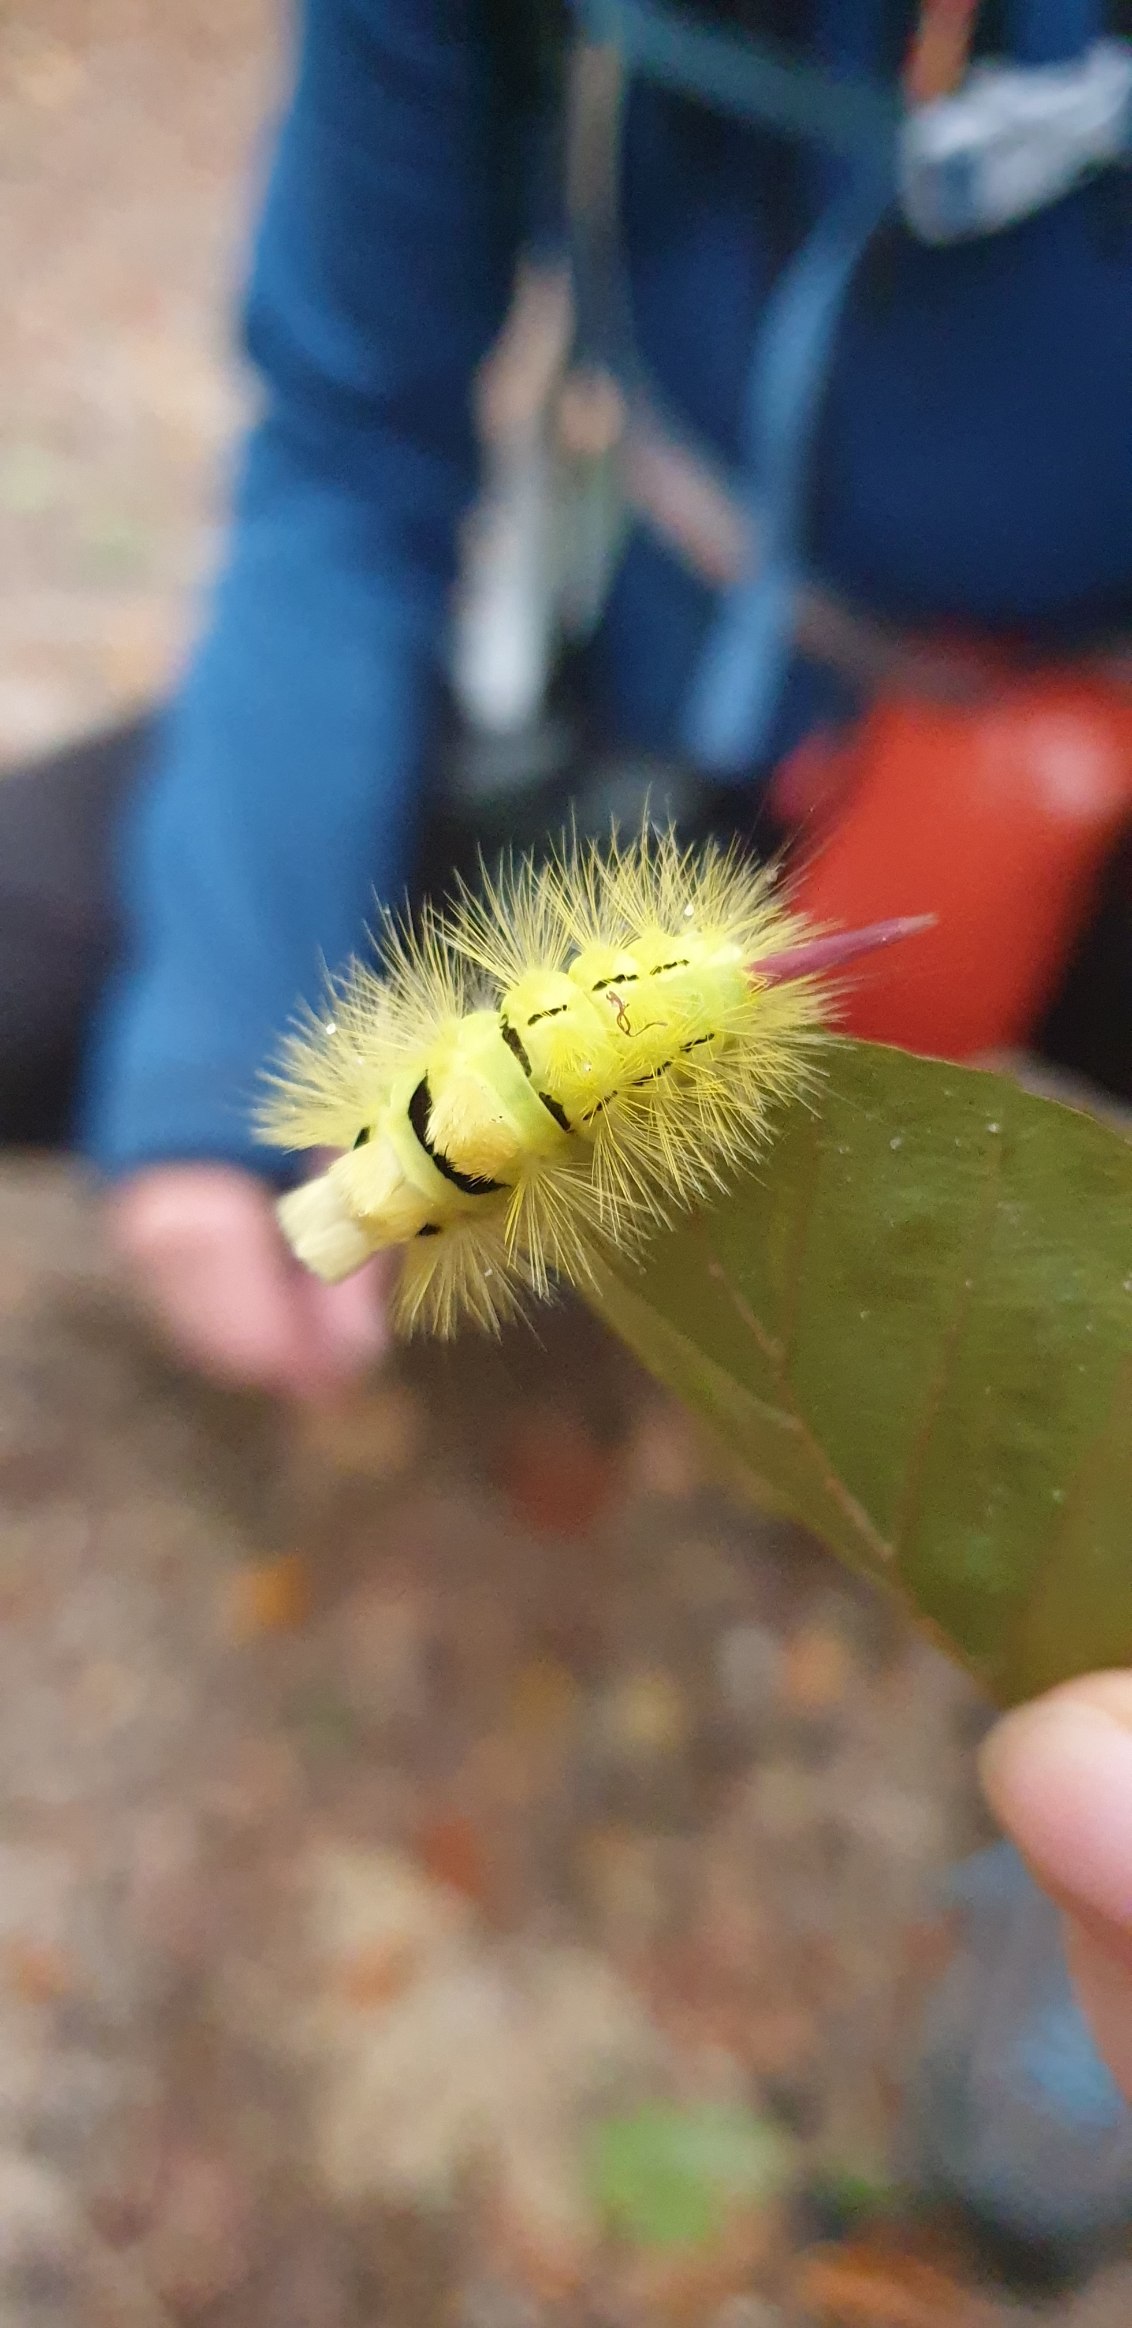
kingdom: Animalia
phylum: Arthropoda
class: Insecta
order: Lepidoptera
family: Erebidae
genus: Calliteara
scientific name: Calliteara pudibunda
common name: Bøgenonne
